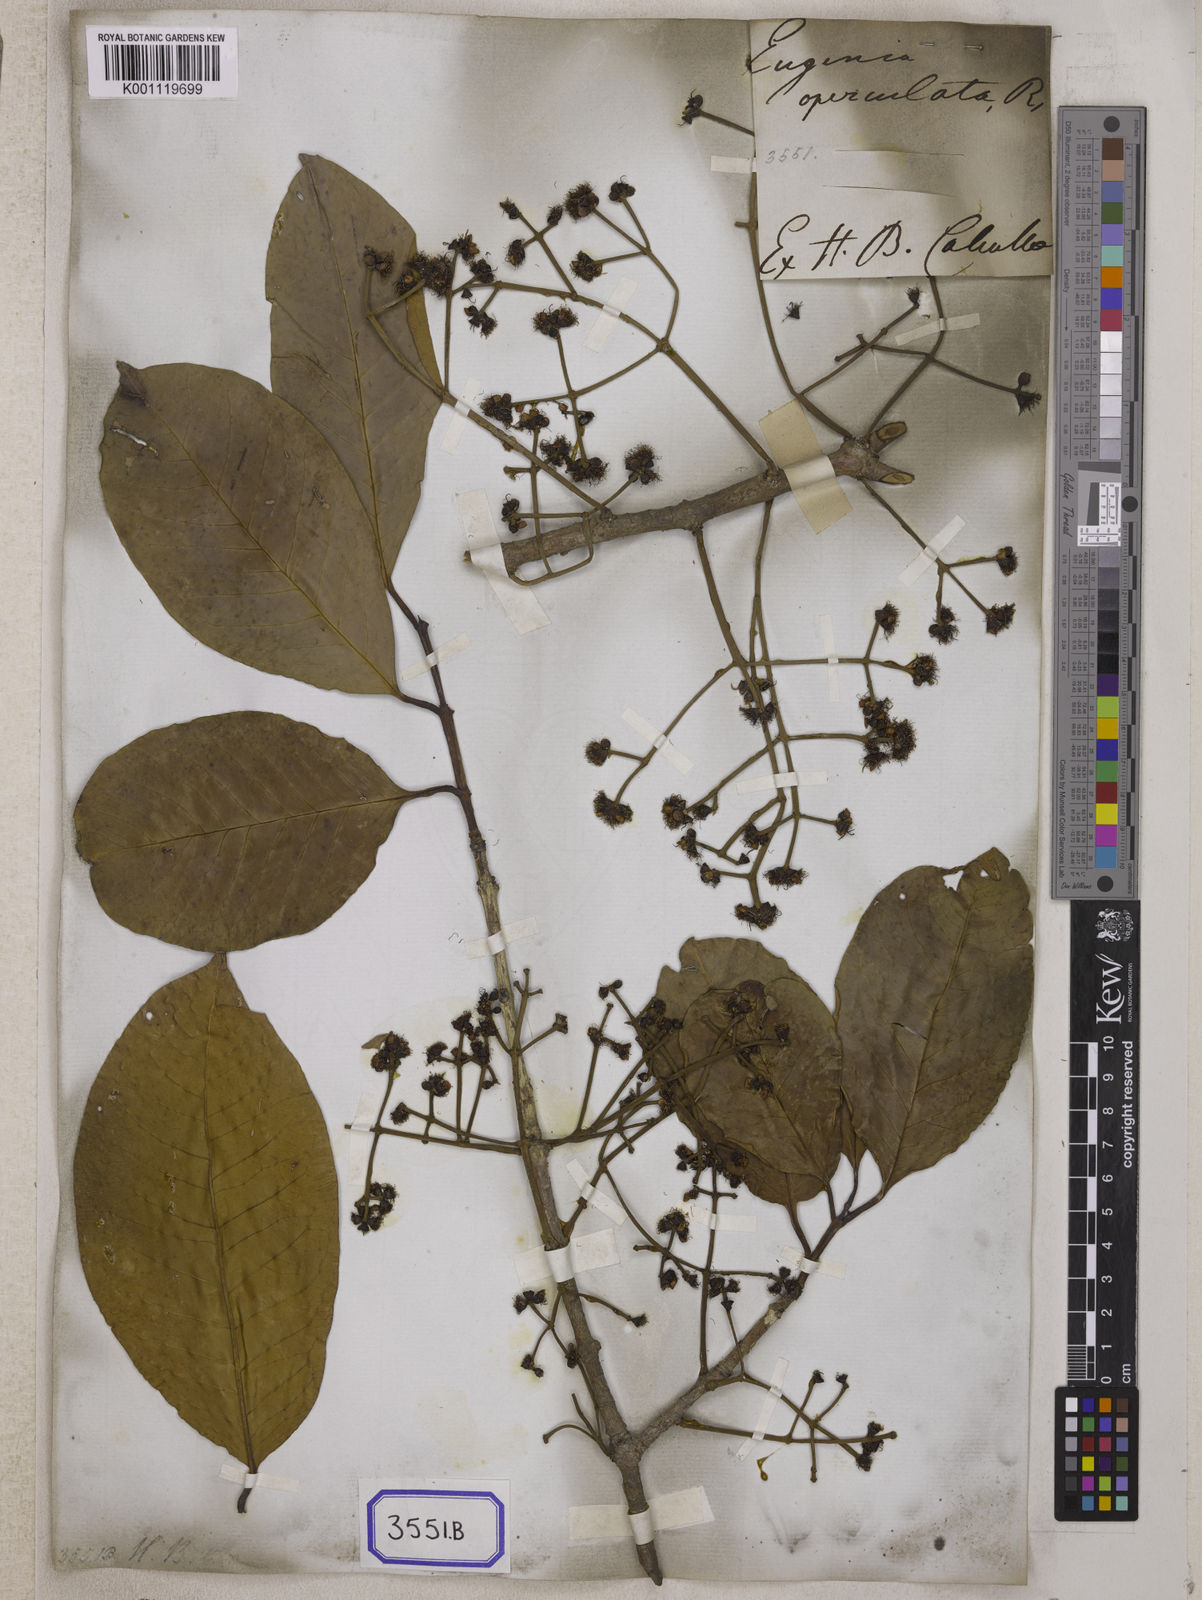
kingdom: Plantae
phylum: Tracheophyta
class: Magnoliopsida
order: Myrtales
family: Myrtaceae
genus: Syzygium
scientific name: Syzygium nervosum
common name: Daly river satinash
